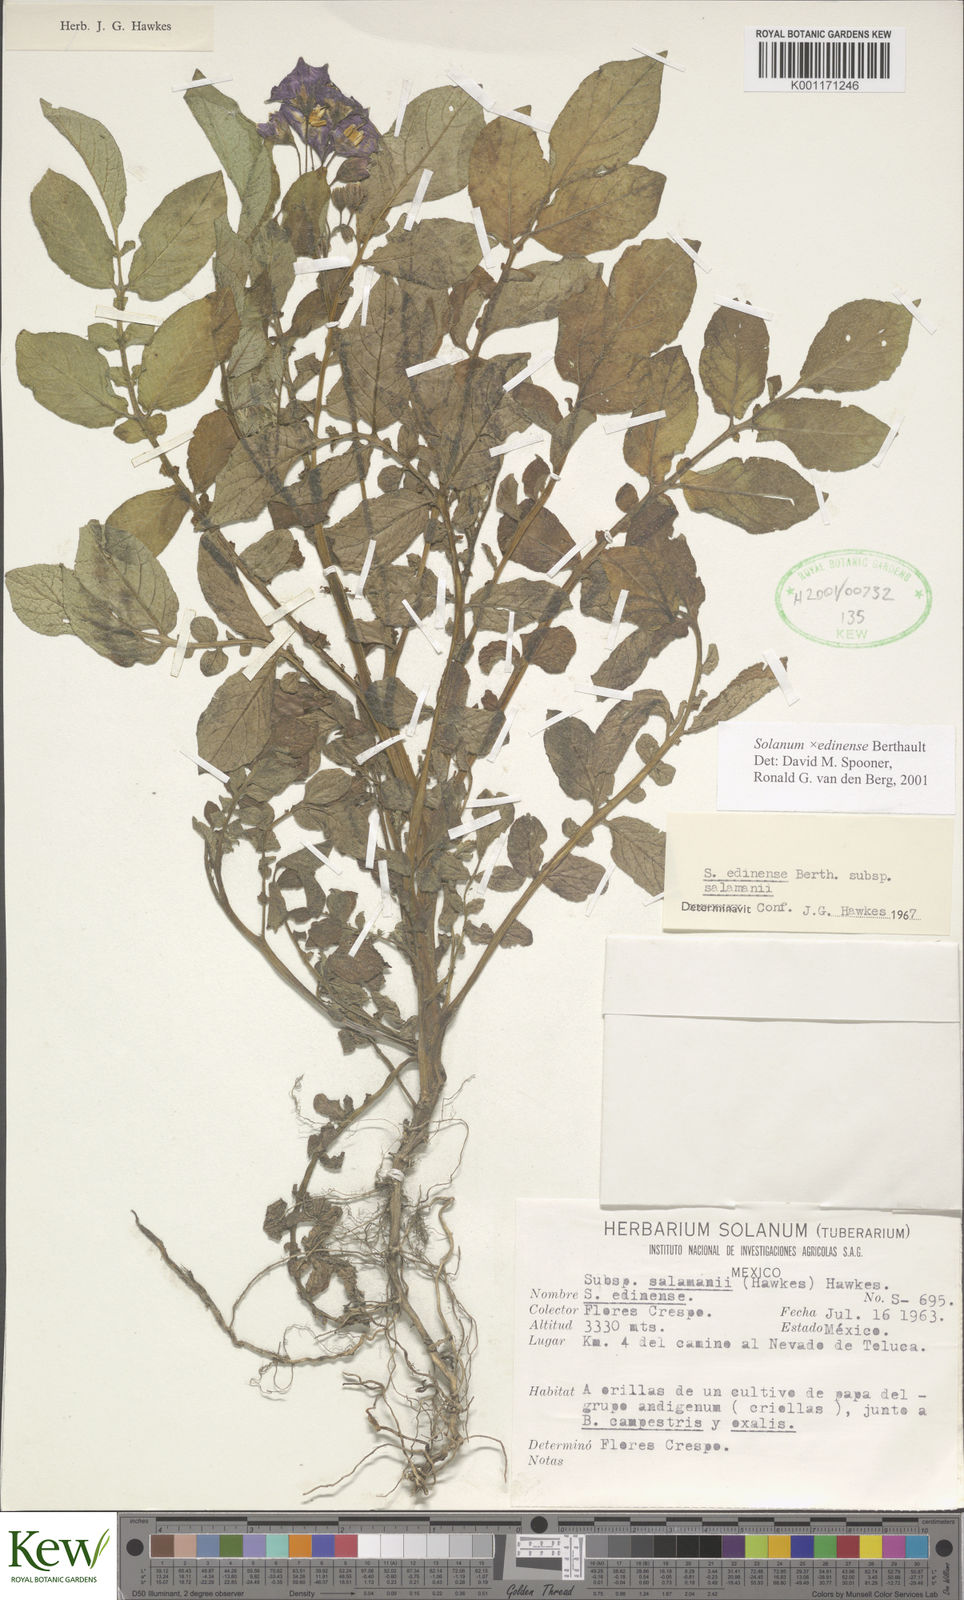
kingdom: Plantae
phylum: Tracheophyta
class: Magnoliopsida
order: Solanales
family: Solanaceae
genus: Solanum
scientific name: Solanum edinense
